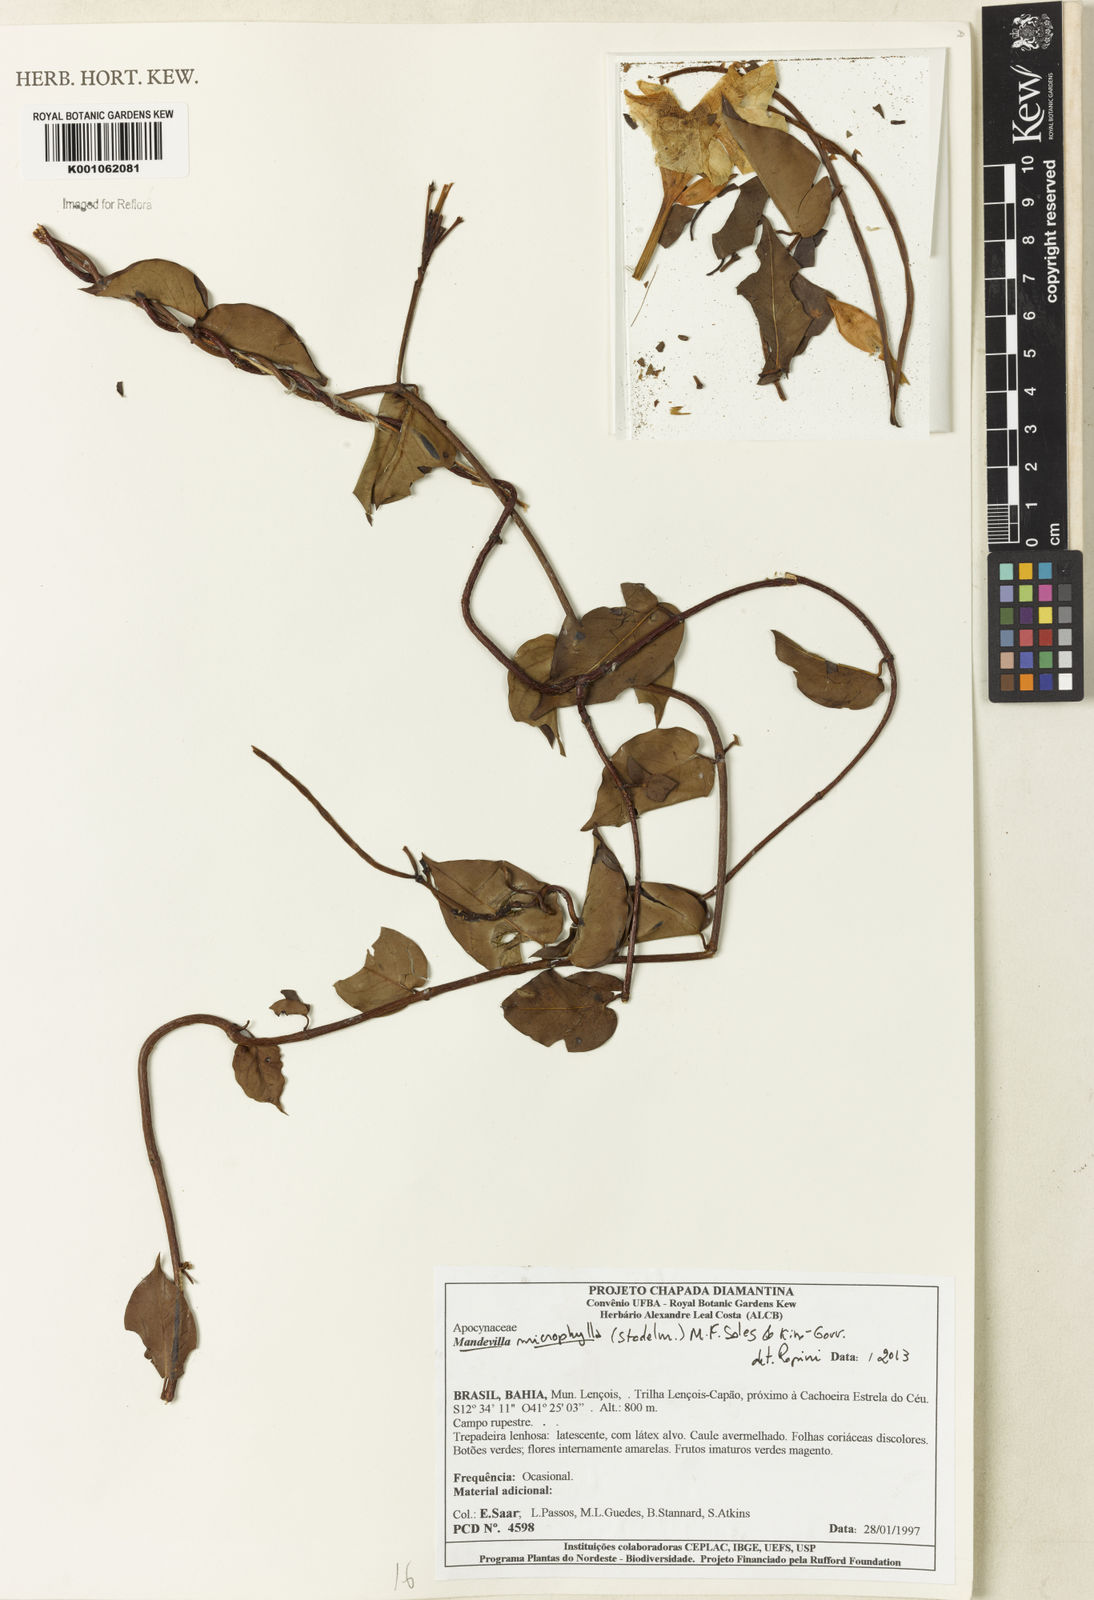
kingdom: Plantae
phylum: Tracheophyta
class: Magnoliopsida
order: Gentianales
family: Apocynaceae
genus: Mandevilla
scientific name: Mandevilla
